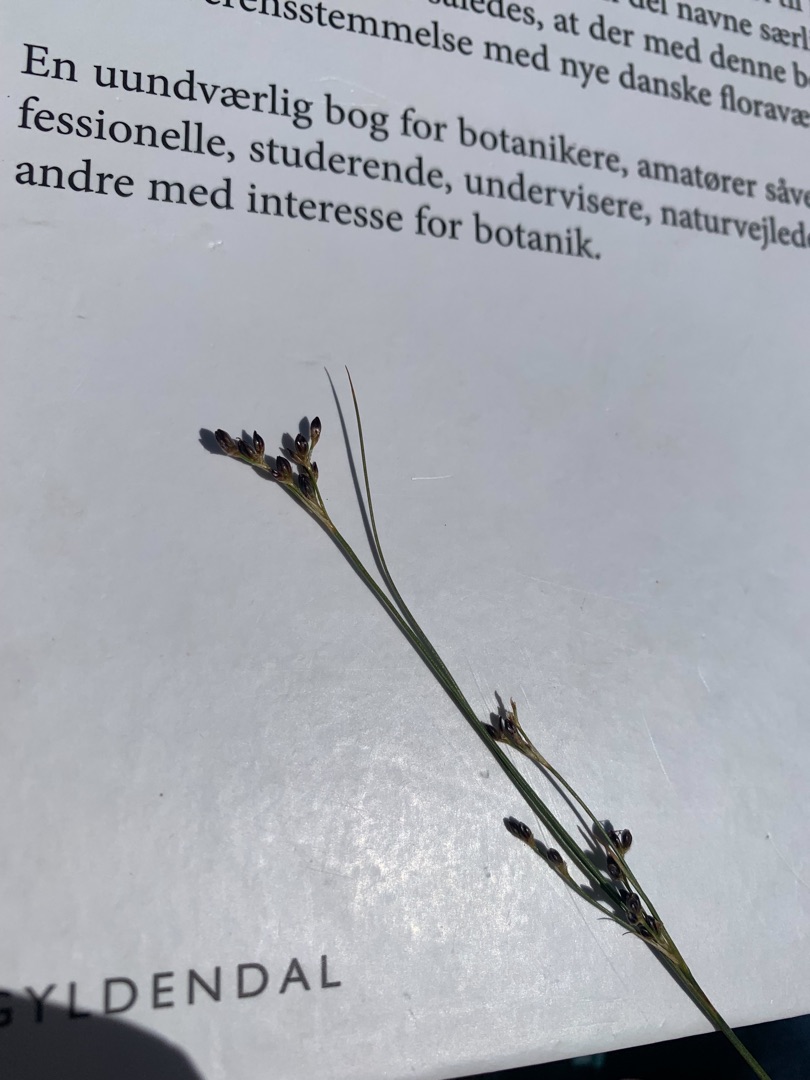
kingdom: Plantae
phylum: Tracheophyta
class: Liliopsida
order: Poales
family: Juncaceae
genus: Juncus
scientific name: Juncus gerardi
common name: Harril
